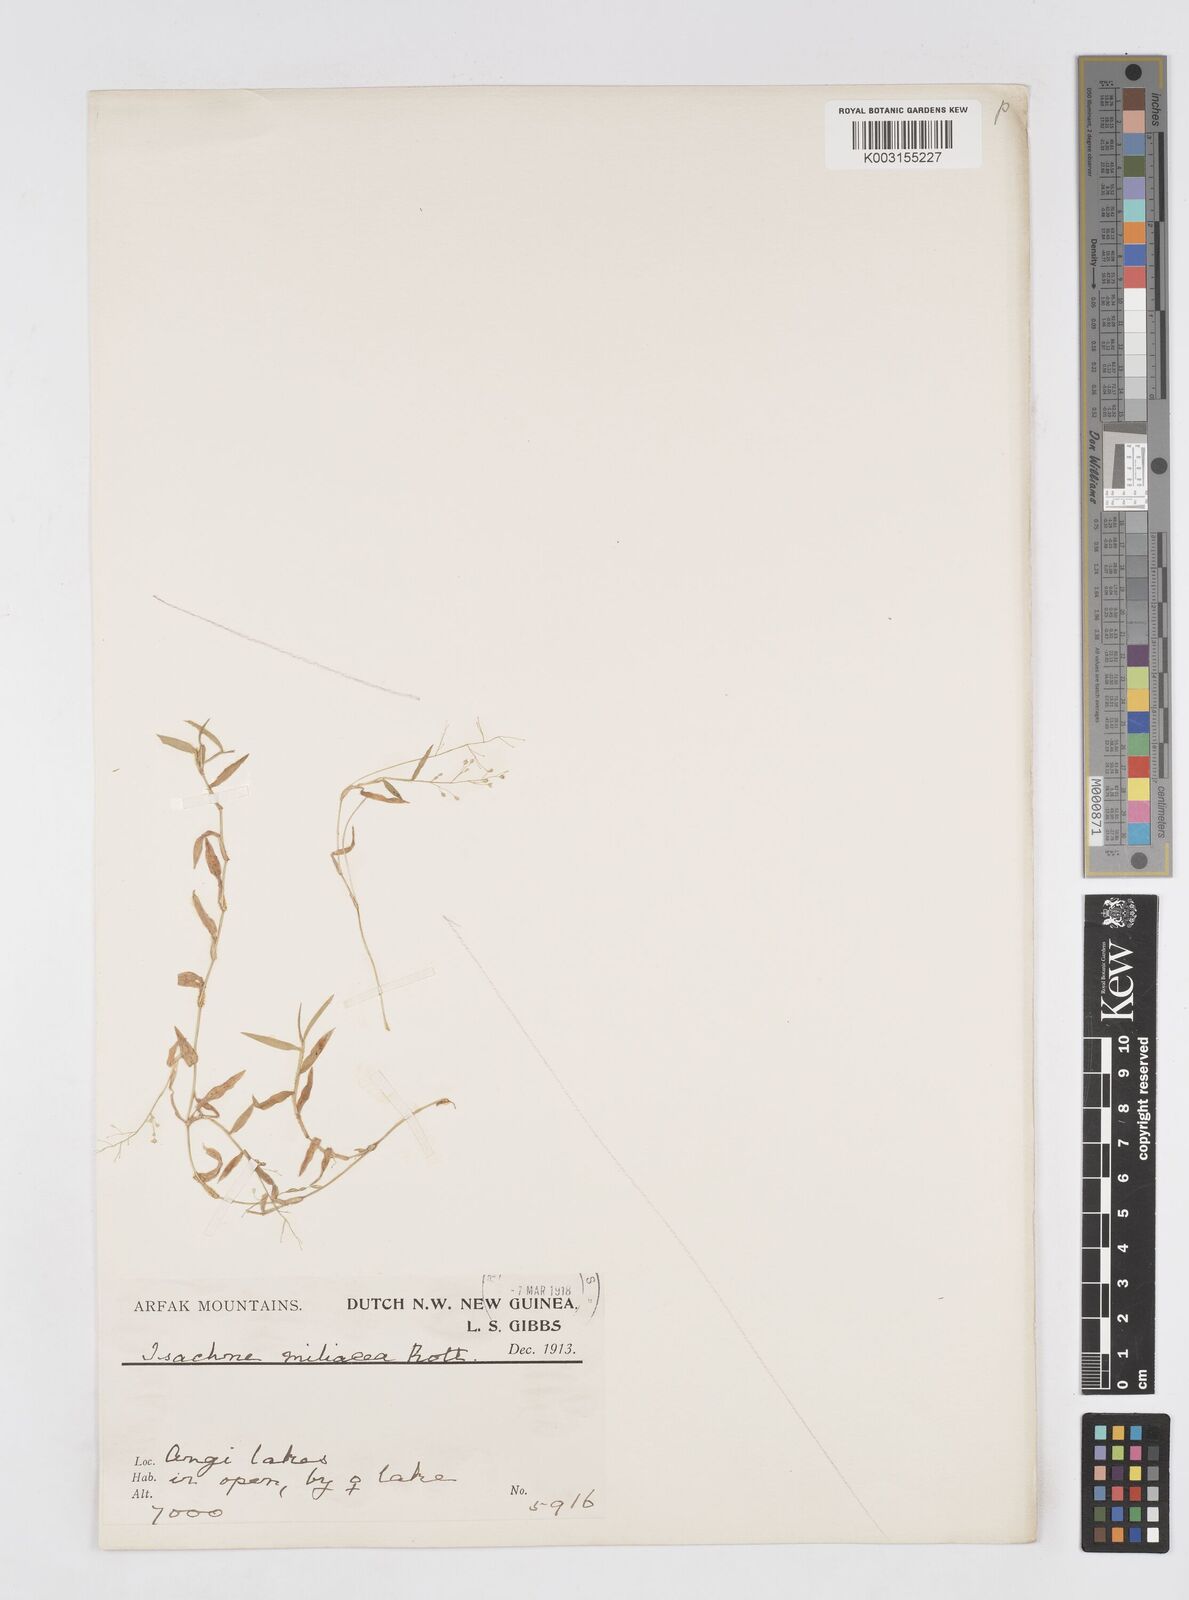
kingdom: Plantae
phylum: Tracheophyta
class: Liliopsida
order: Poales
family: Poaceae
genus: Isachne
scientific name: Isachne globosa
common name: Swamp millet
